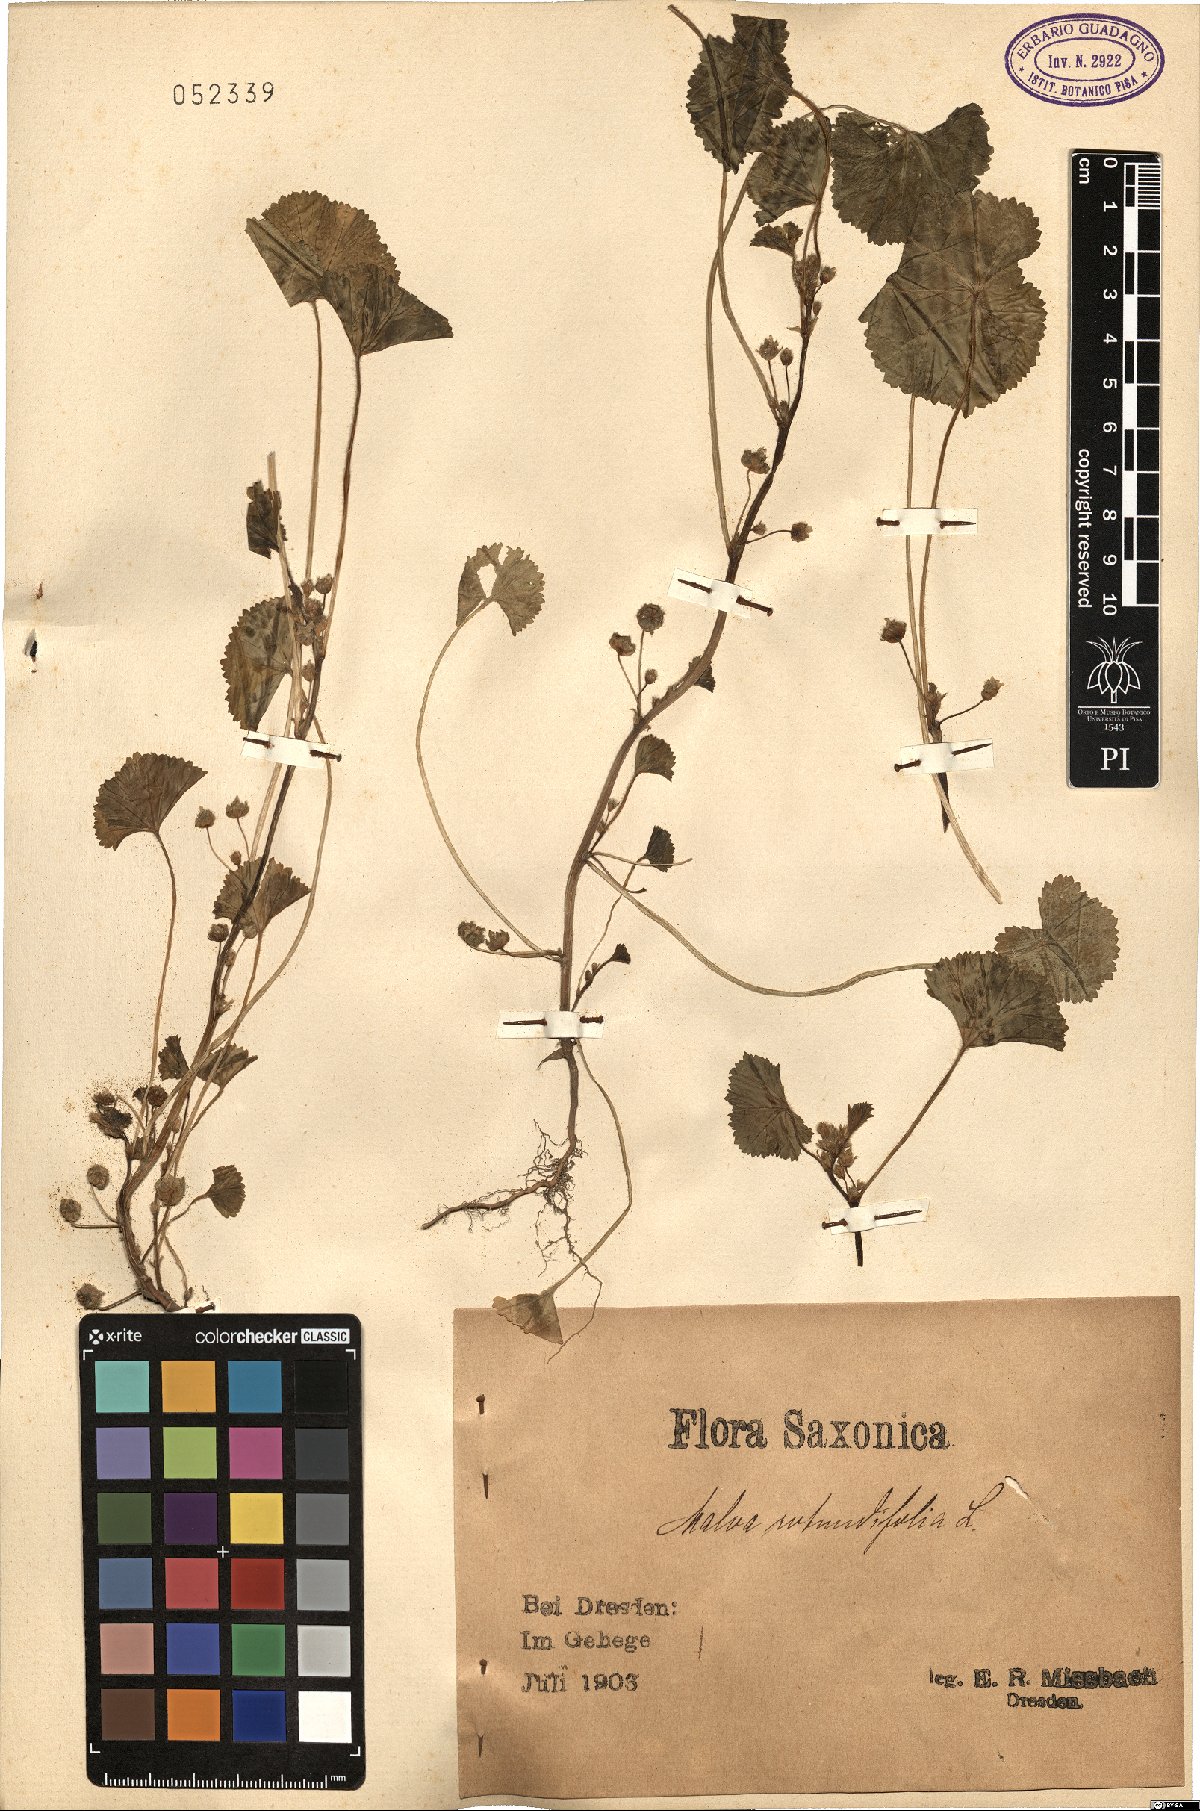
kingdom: Plantae
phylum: Tracheophyta
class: Magnoliopsida
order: Malvales
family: Malvaceae
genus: Malva
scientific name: Malva pusilla
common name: Small mallow
